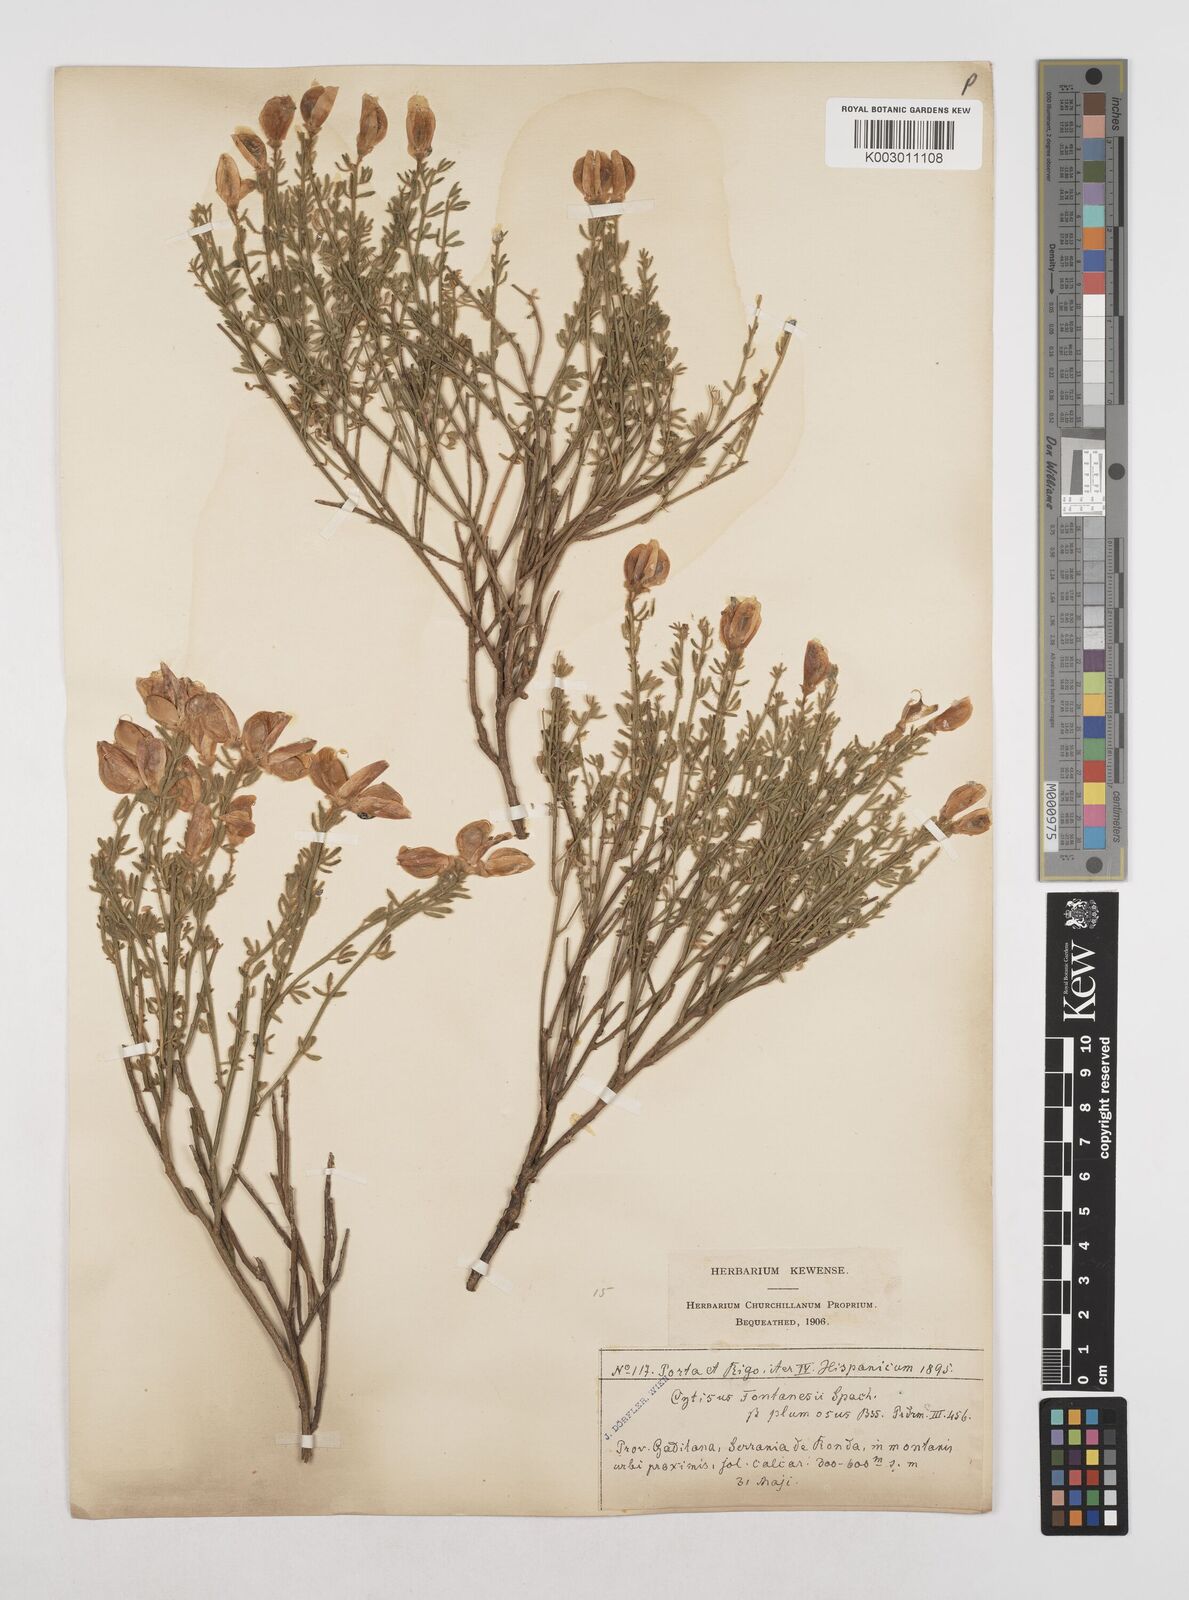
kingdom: Plantae
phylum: Tracheophyta
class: Magnoliopsida
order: Fabales
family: Fabaceae
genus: Cytisus
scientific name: Cytisus fontanesii
